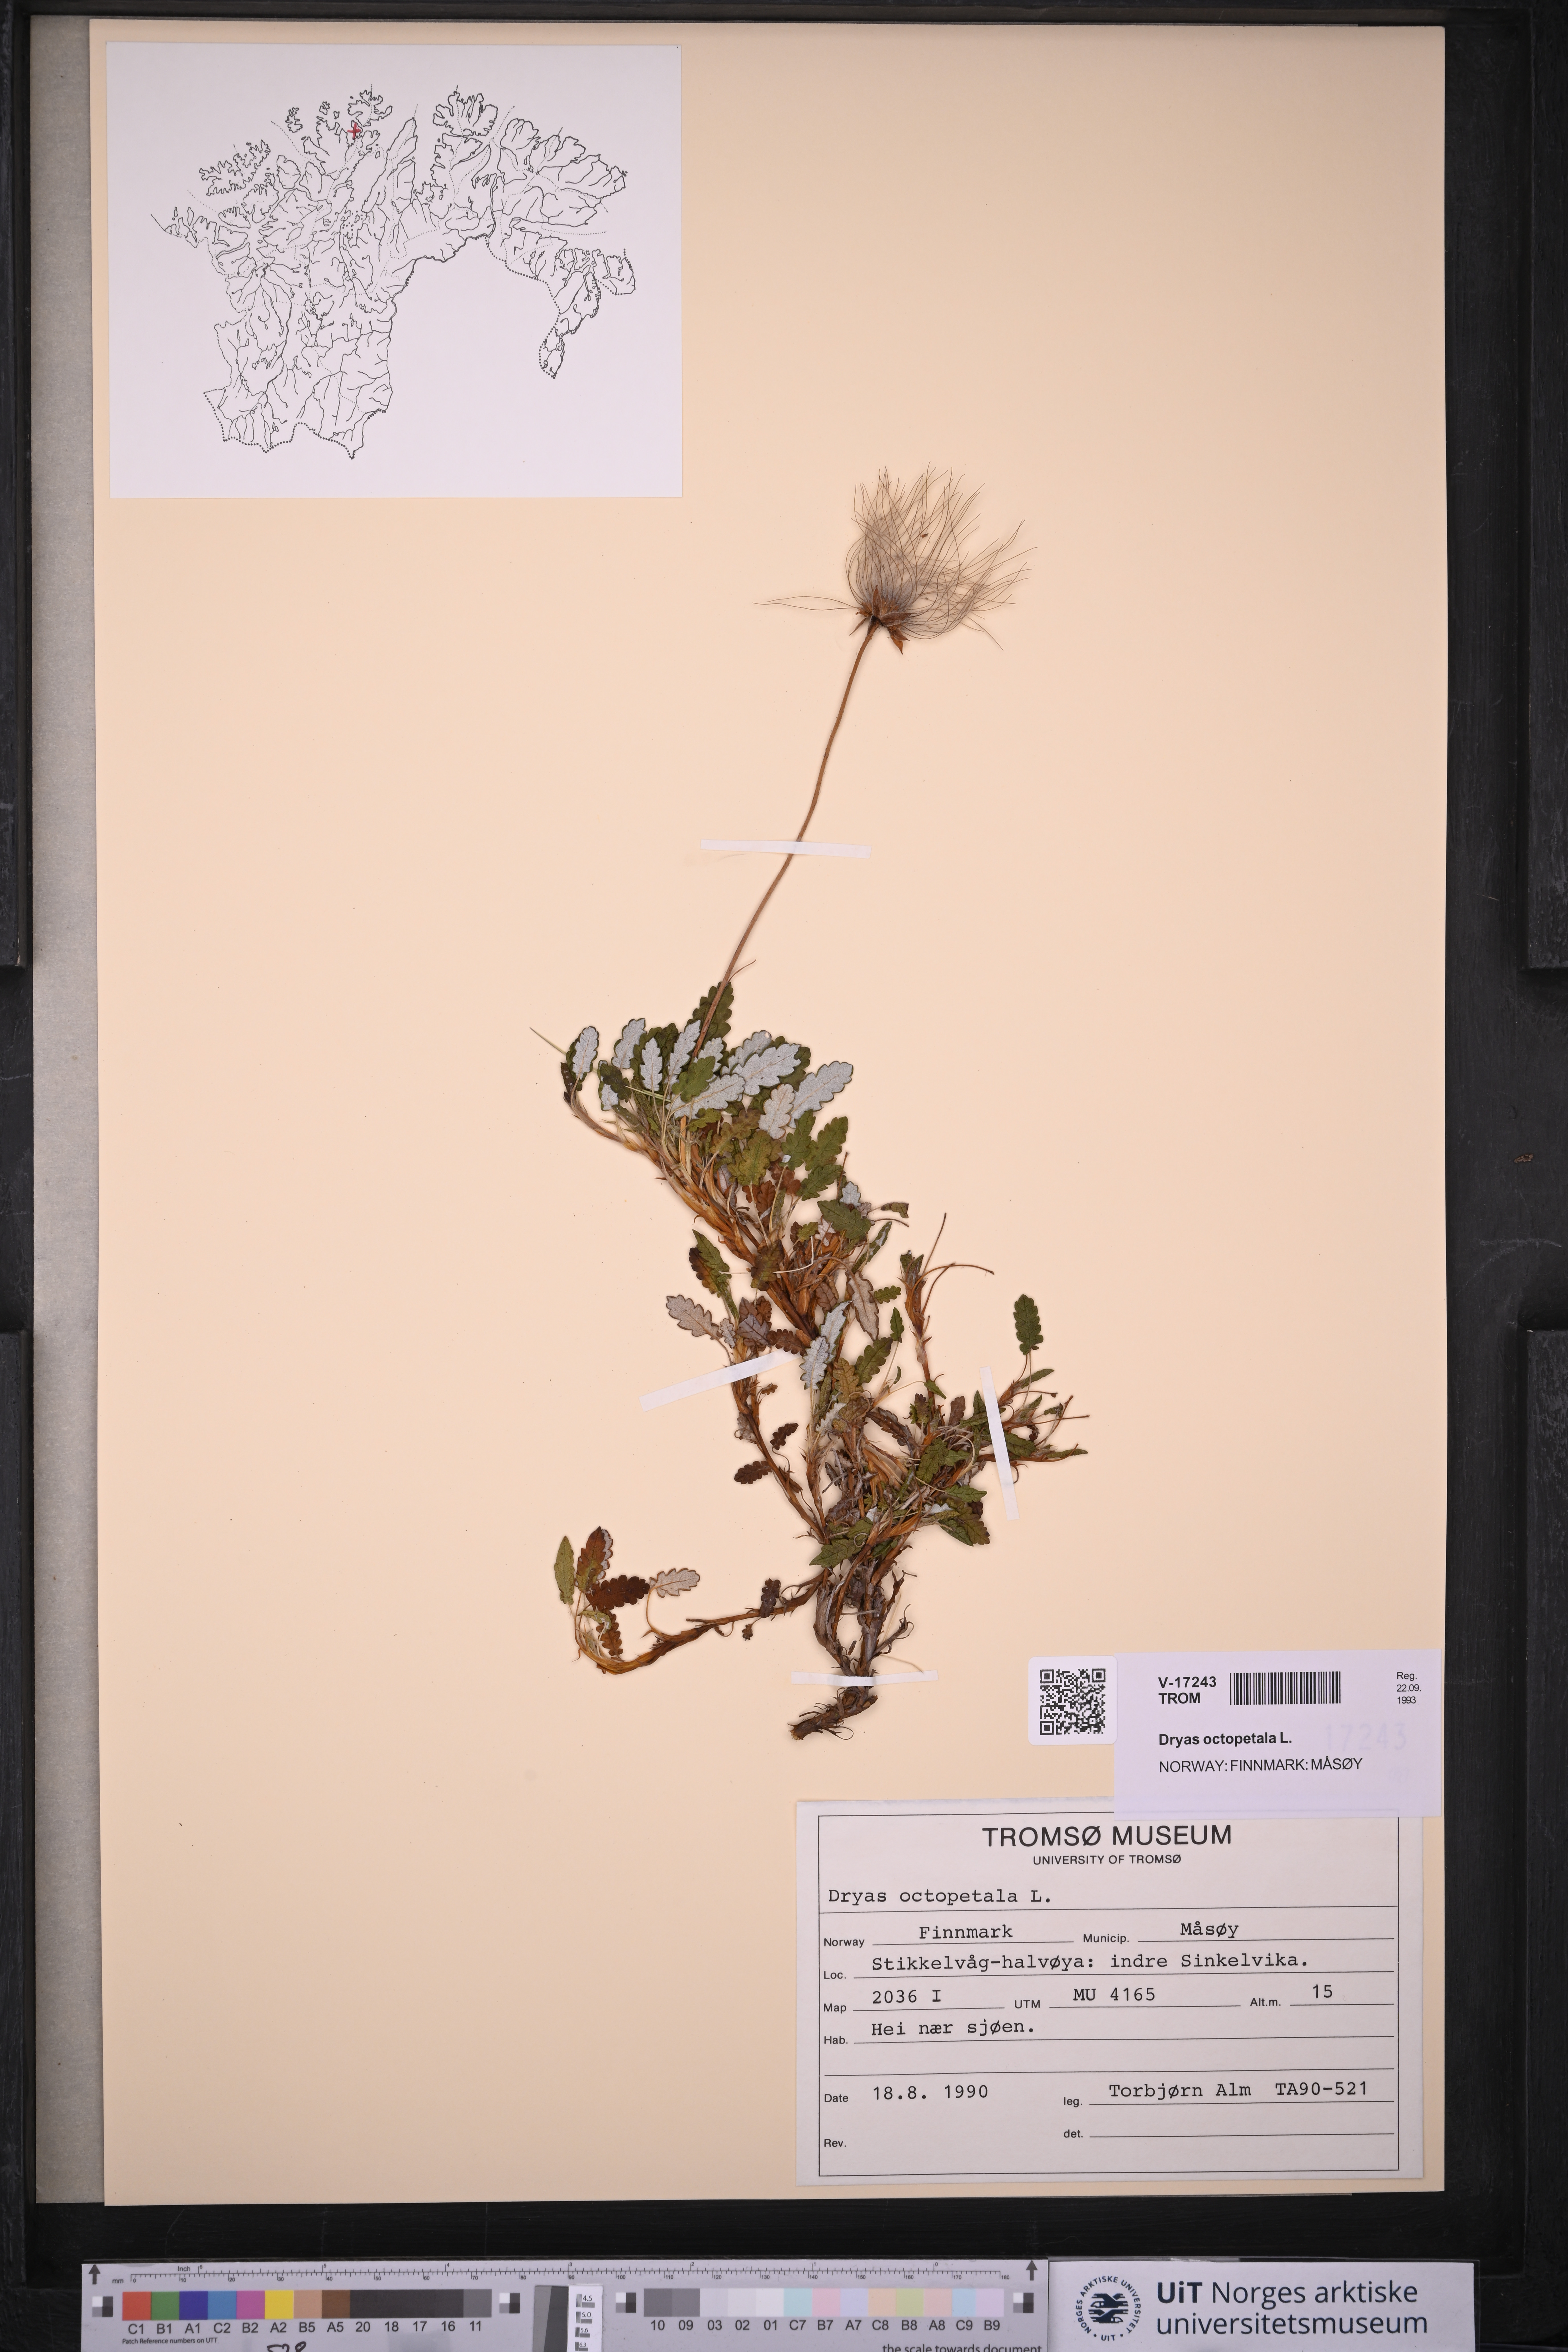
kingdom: Plantae
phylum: Tracheophyta
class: Magnoliopsida
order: Rosales
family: Rosaceae
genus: Dryas
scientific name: Dryas octopetala
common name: Eight-petal mountain-avens
